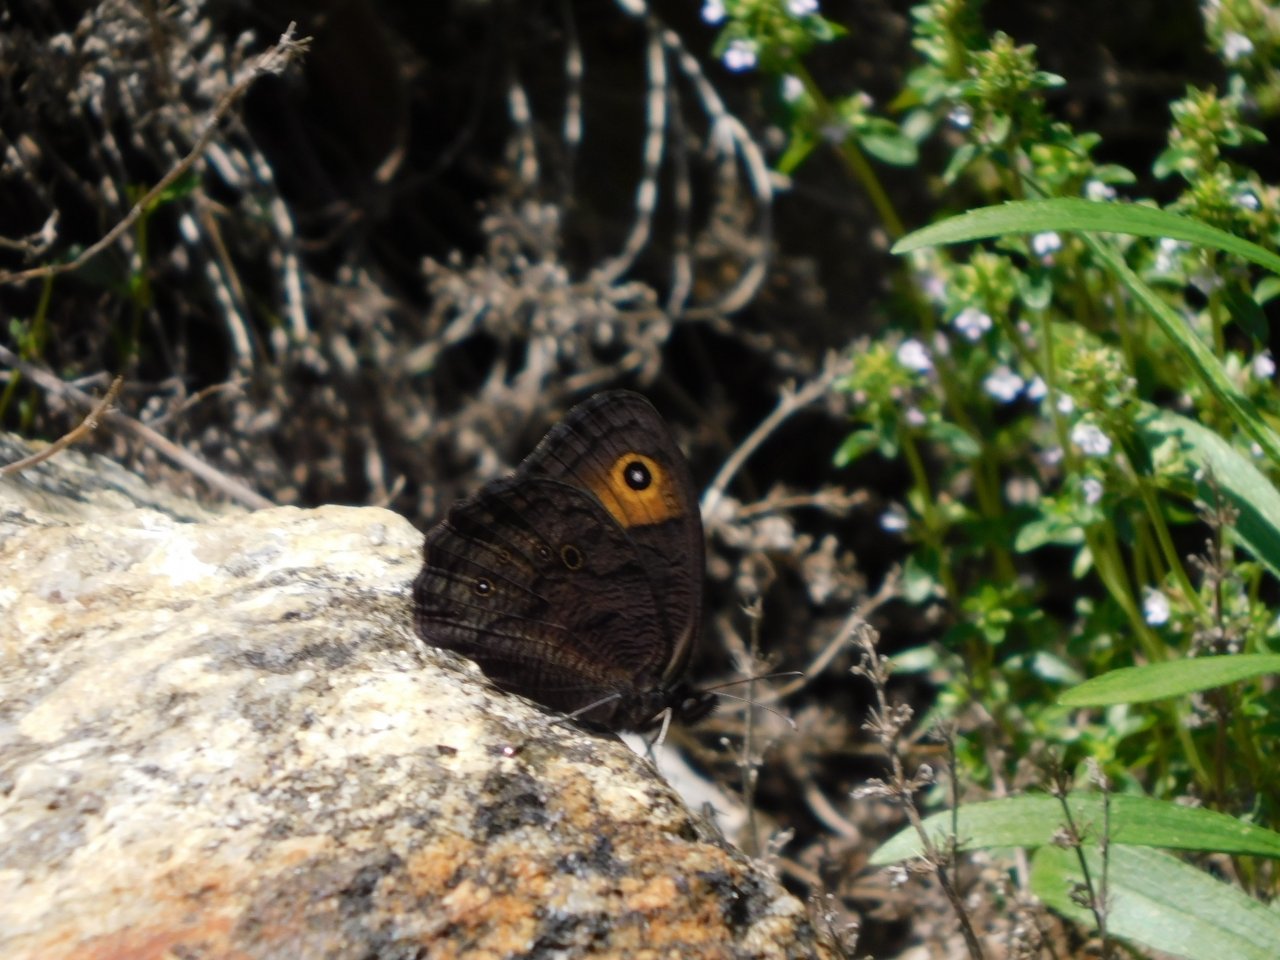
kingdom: Animalia
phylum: Arthropoda
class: Insecta
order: Lepidoptera
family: Nymphalidae
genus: Cercyonis
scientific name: Cercyonis pegala
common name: Common Wood-Nymph
